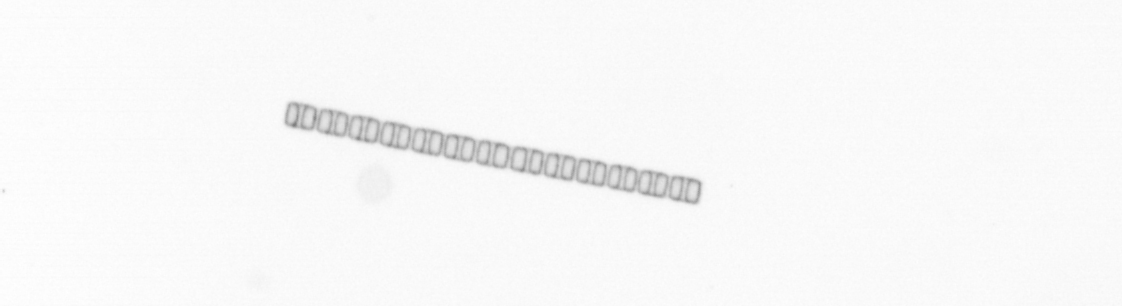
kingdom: Chromista
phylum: Ochrophyta
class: Bacillariophyceae
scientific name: Bacillariophyceae
